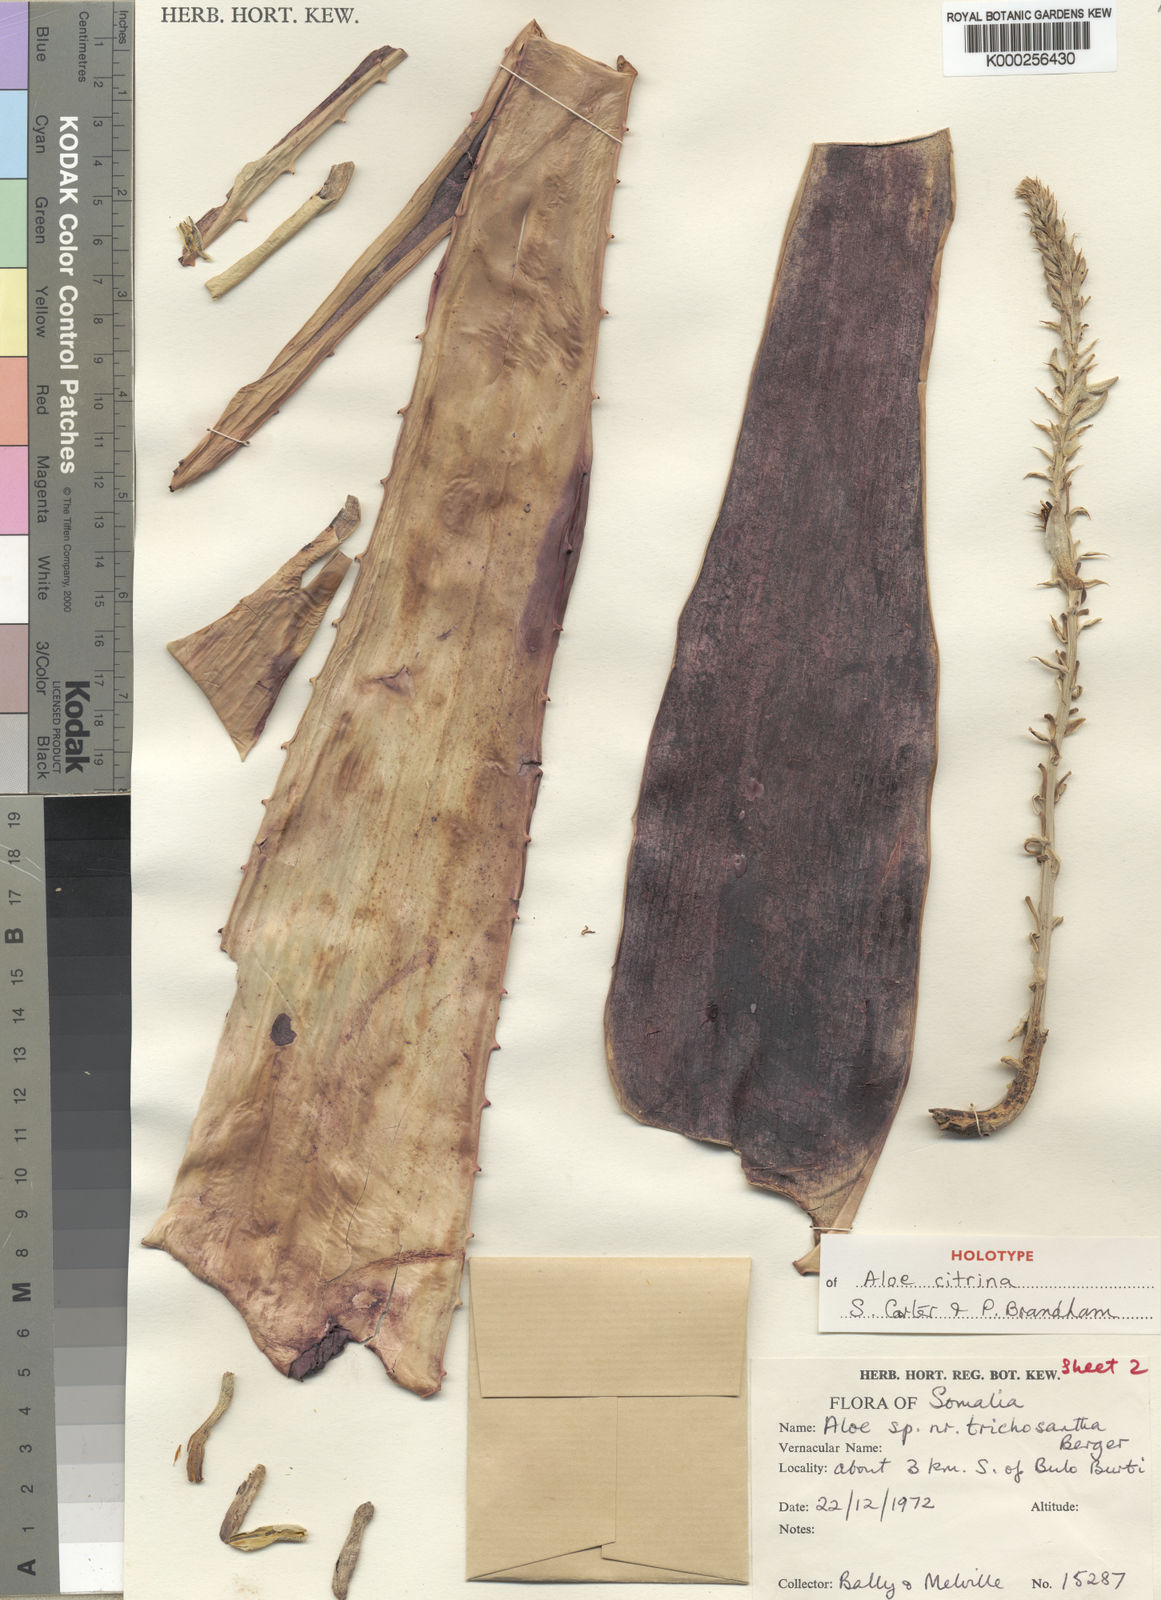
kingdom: Plantae
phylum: Tracheophyta
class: Liliopsida
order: Asparagales
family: Asphodelaceae
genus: Aloe
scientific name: Aloe citrina
